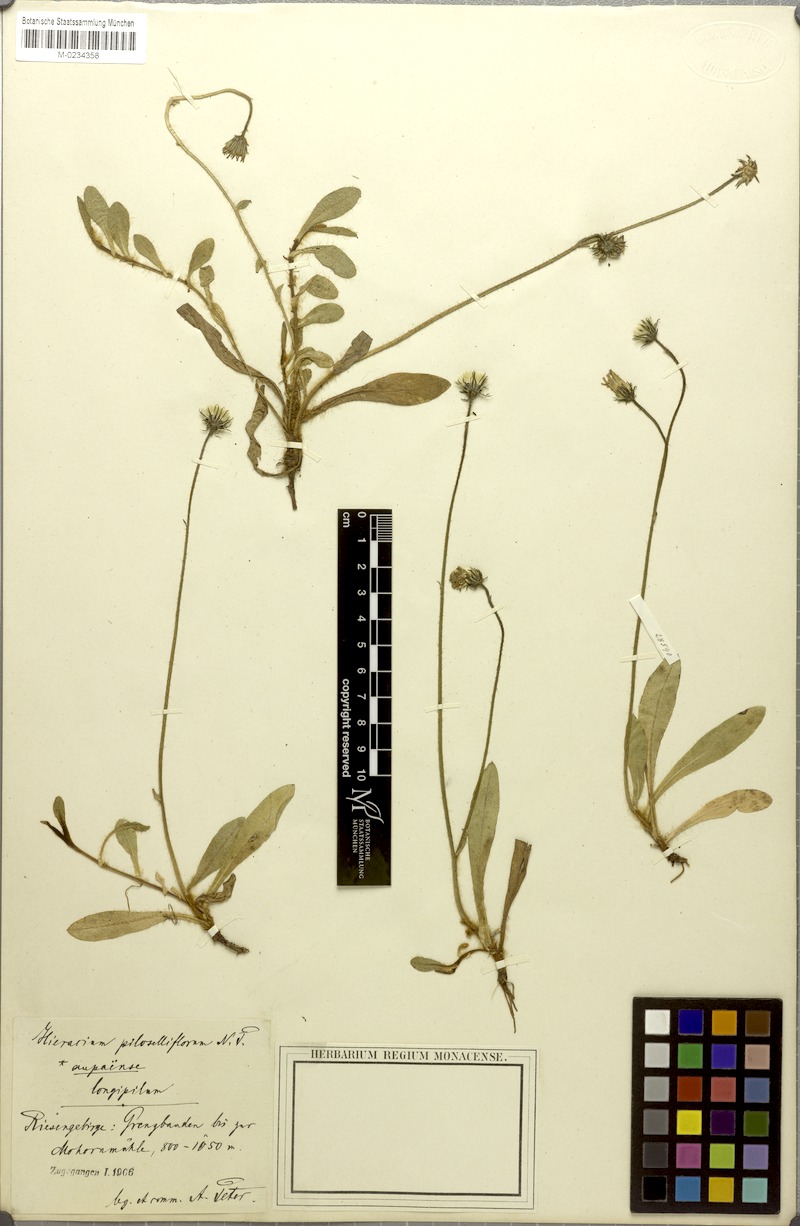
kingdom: Plantae
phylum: Tracheophyta
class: Magnoliopsida
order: Asterales
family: Asteraceae
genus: Pilosella
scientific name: Pilosella piloselliflora
